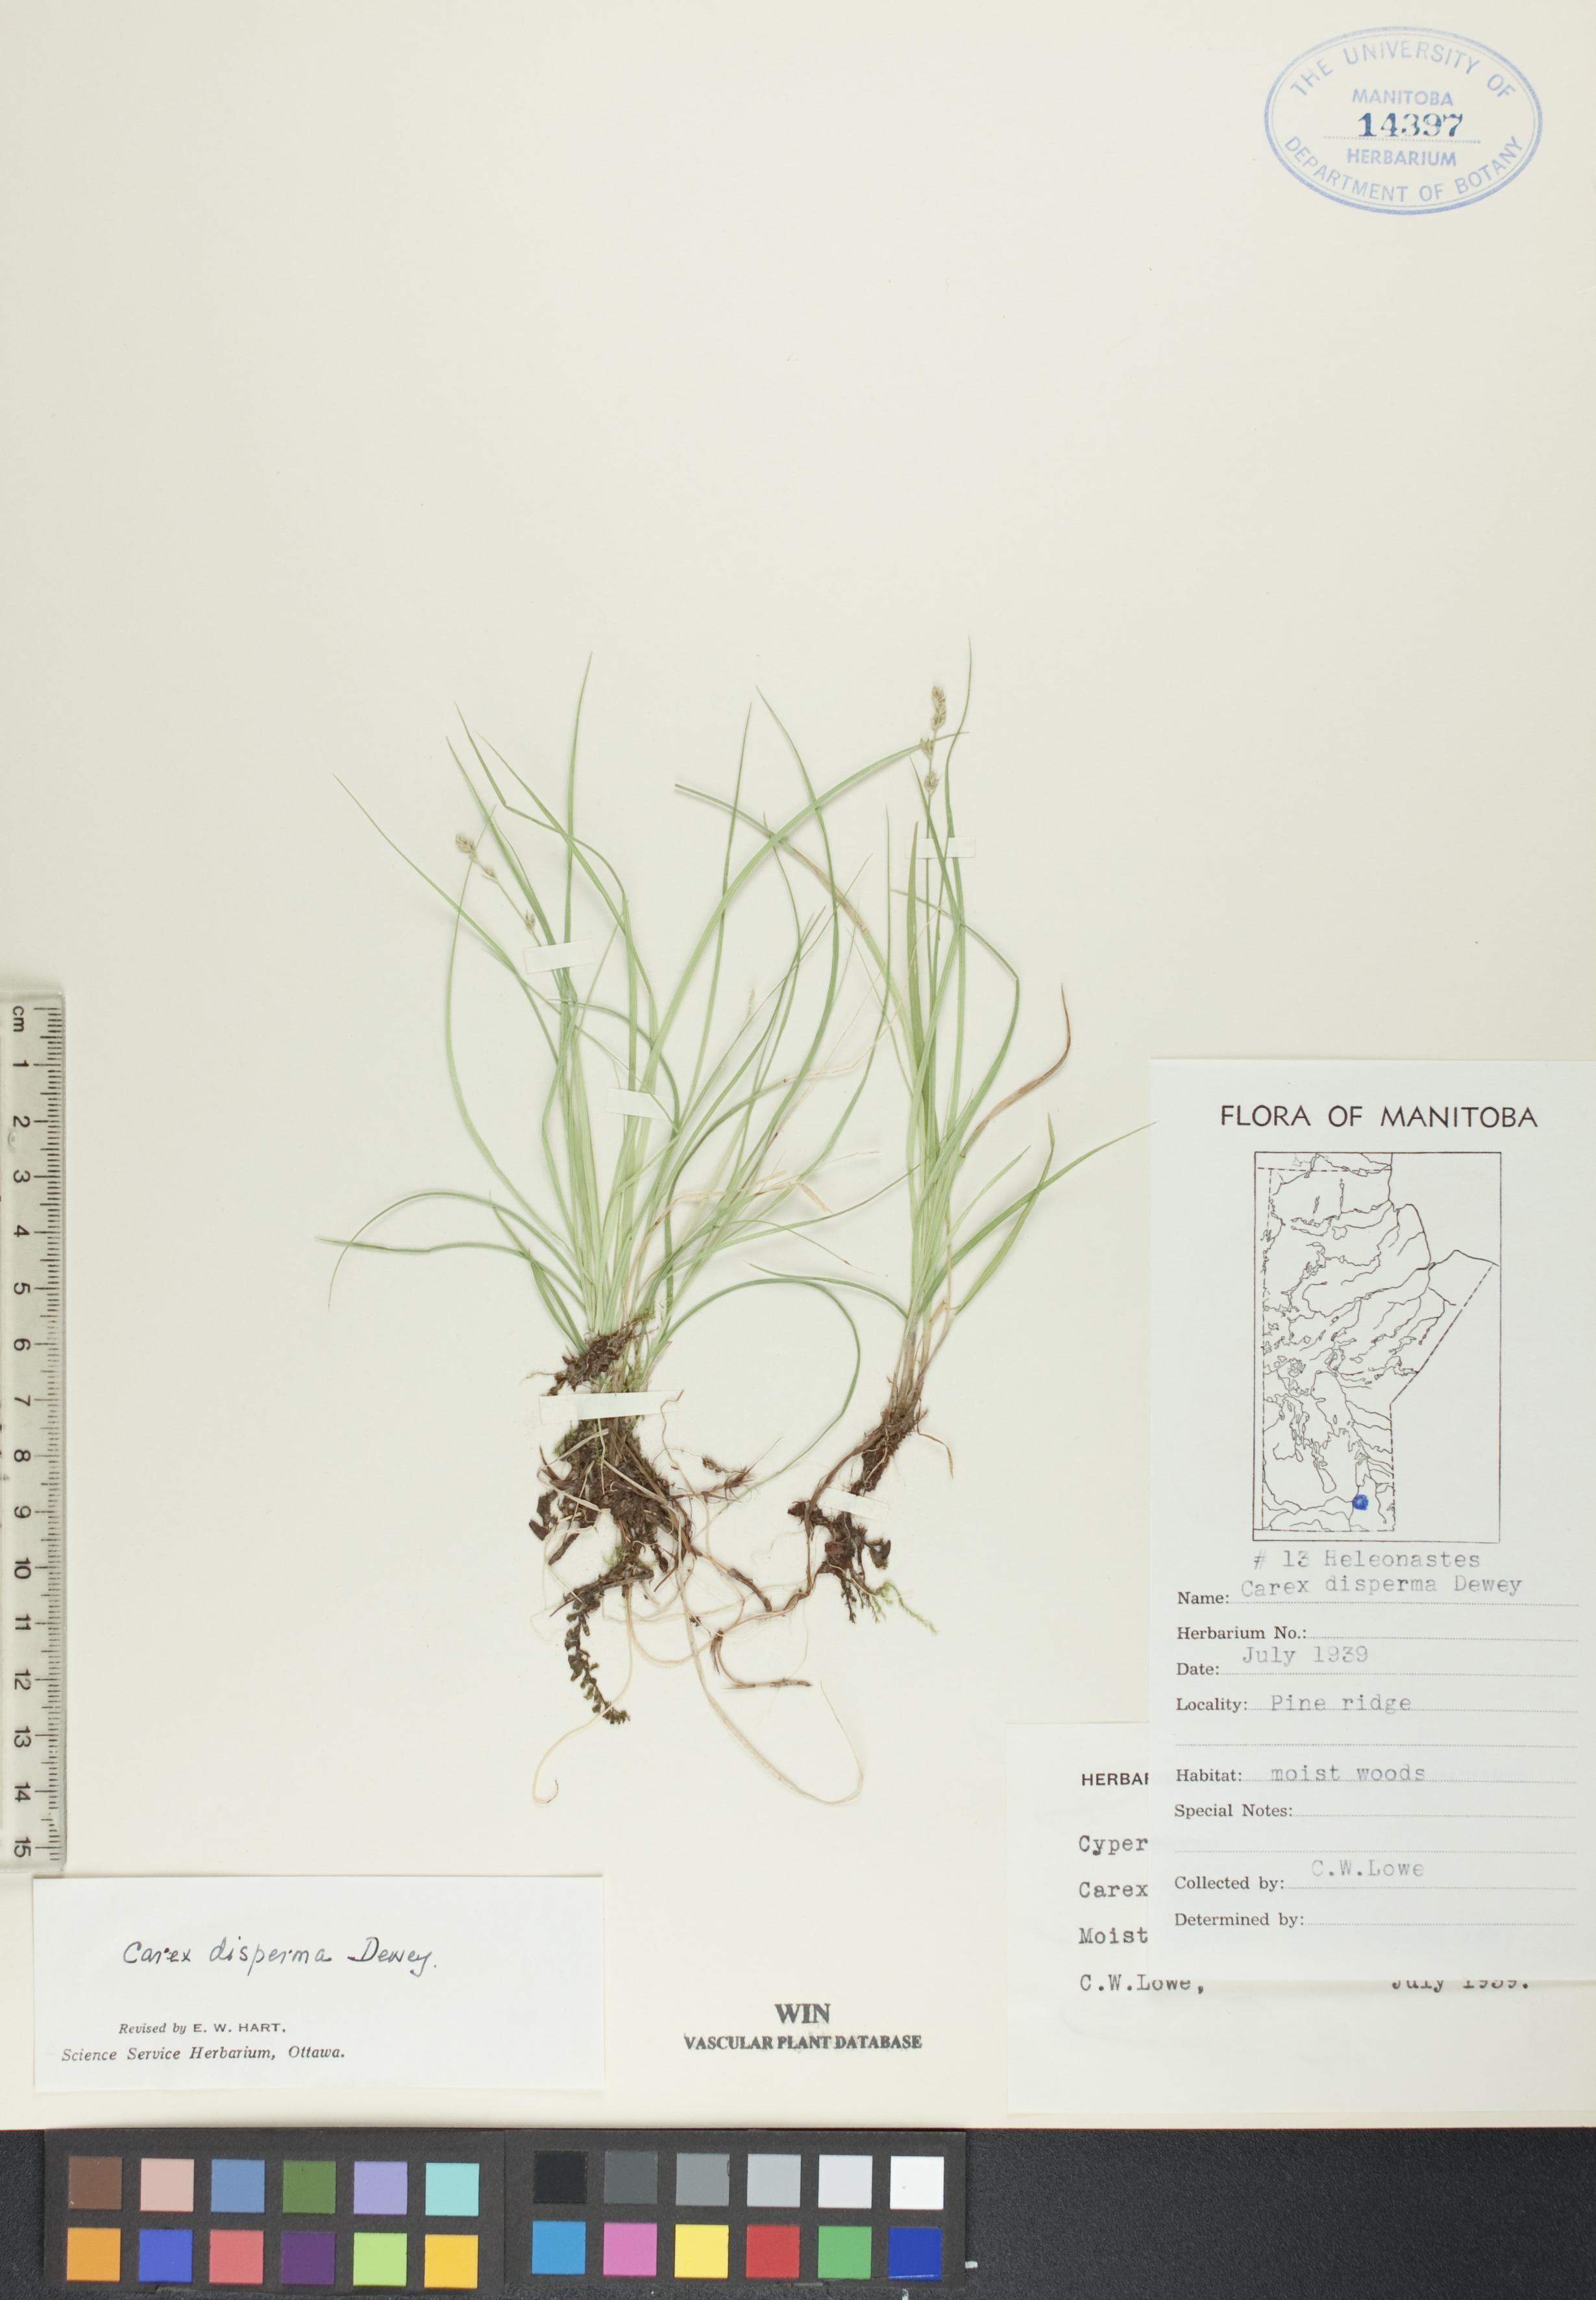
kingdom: Plantae
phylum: Tracheophyta
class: Liliopsida
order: Poales
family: Cyperaceae
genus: Carex
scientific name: Carex disperma
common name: Short-leaved sedge
